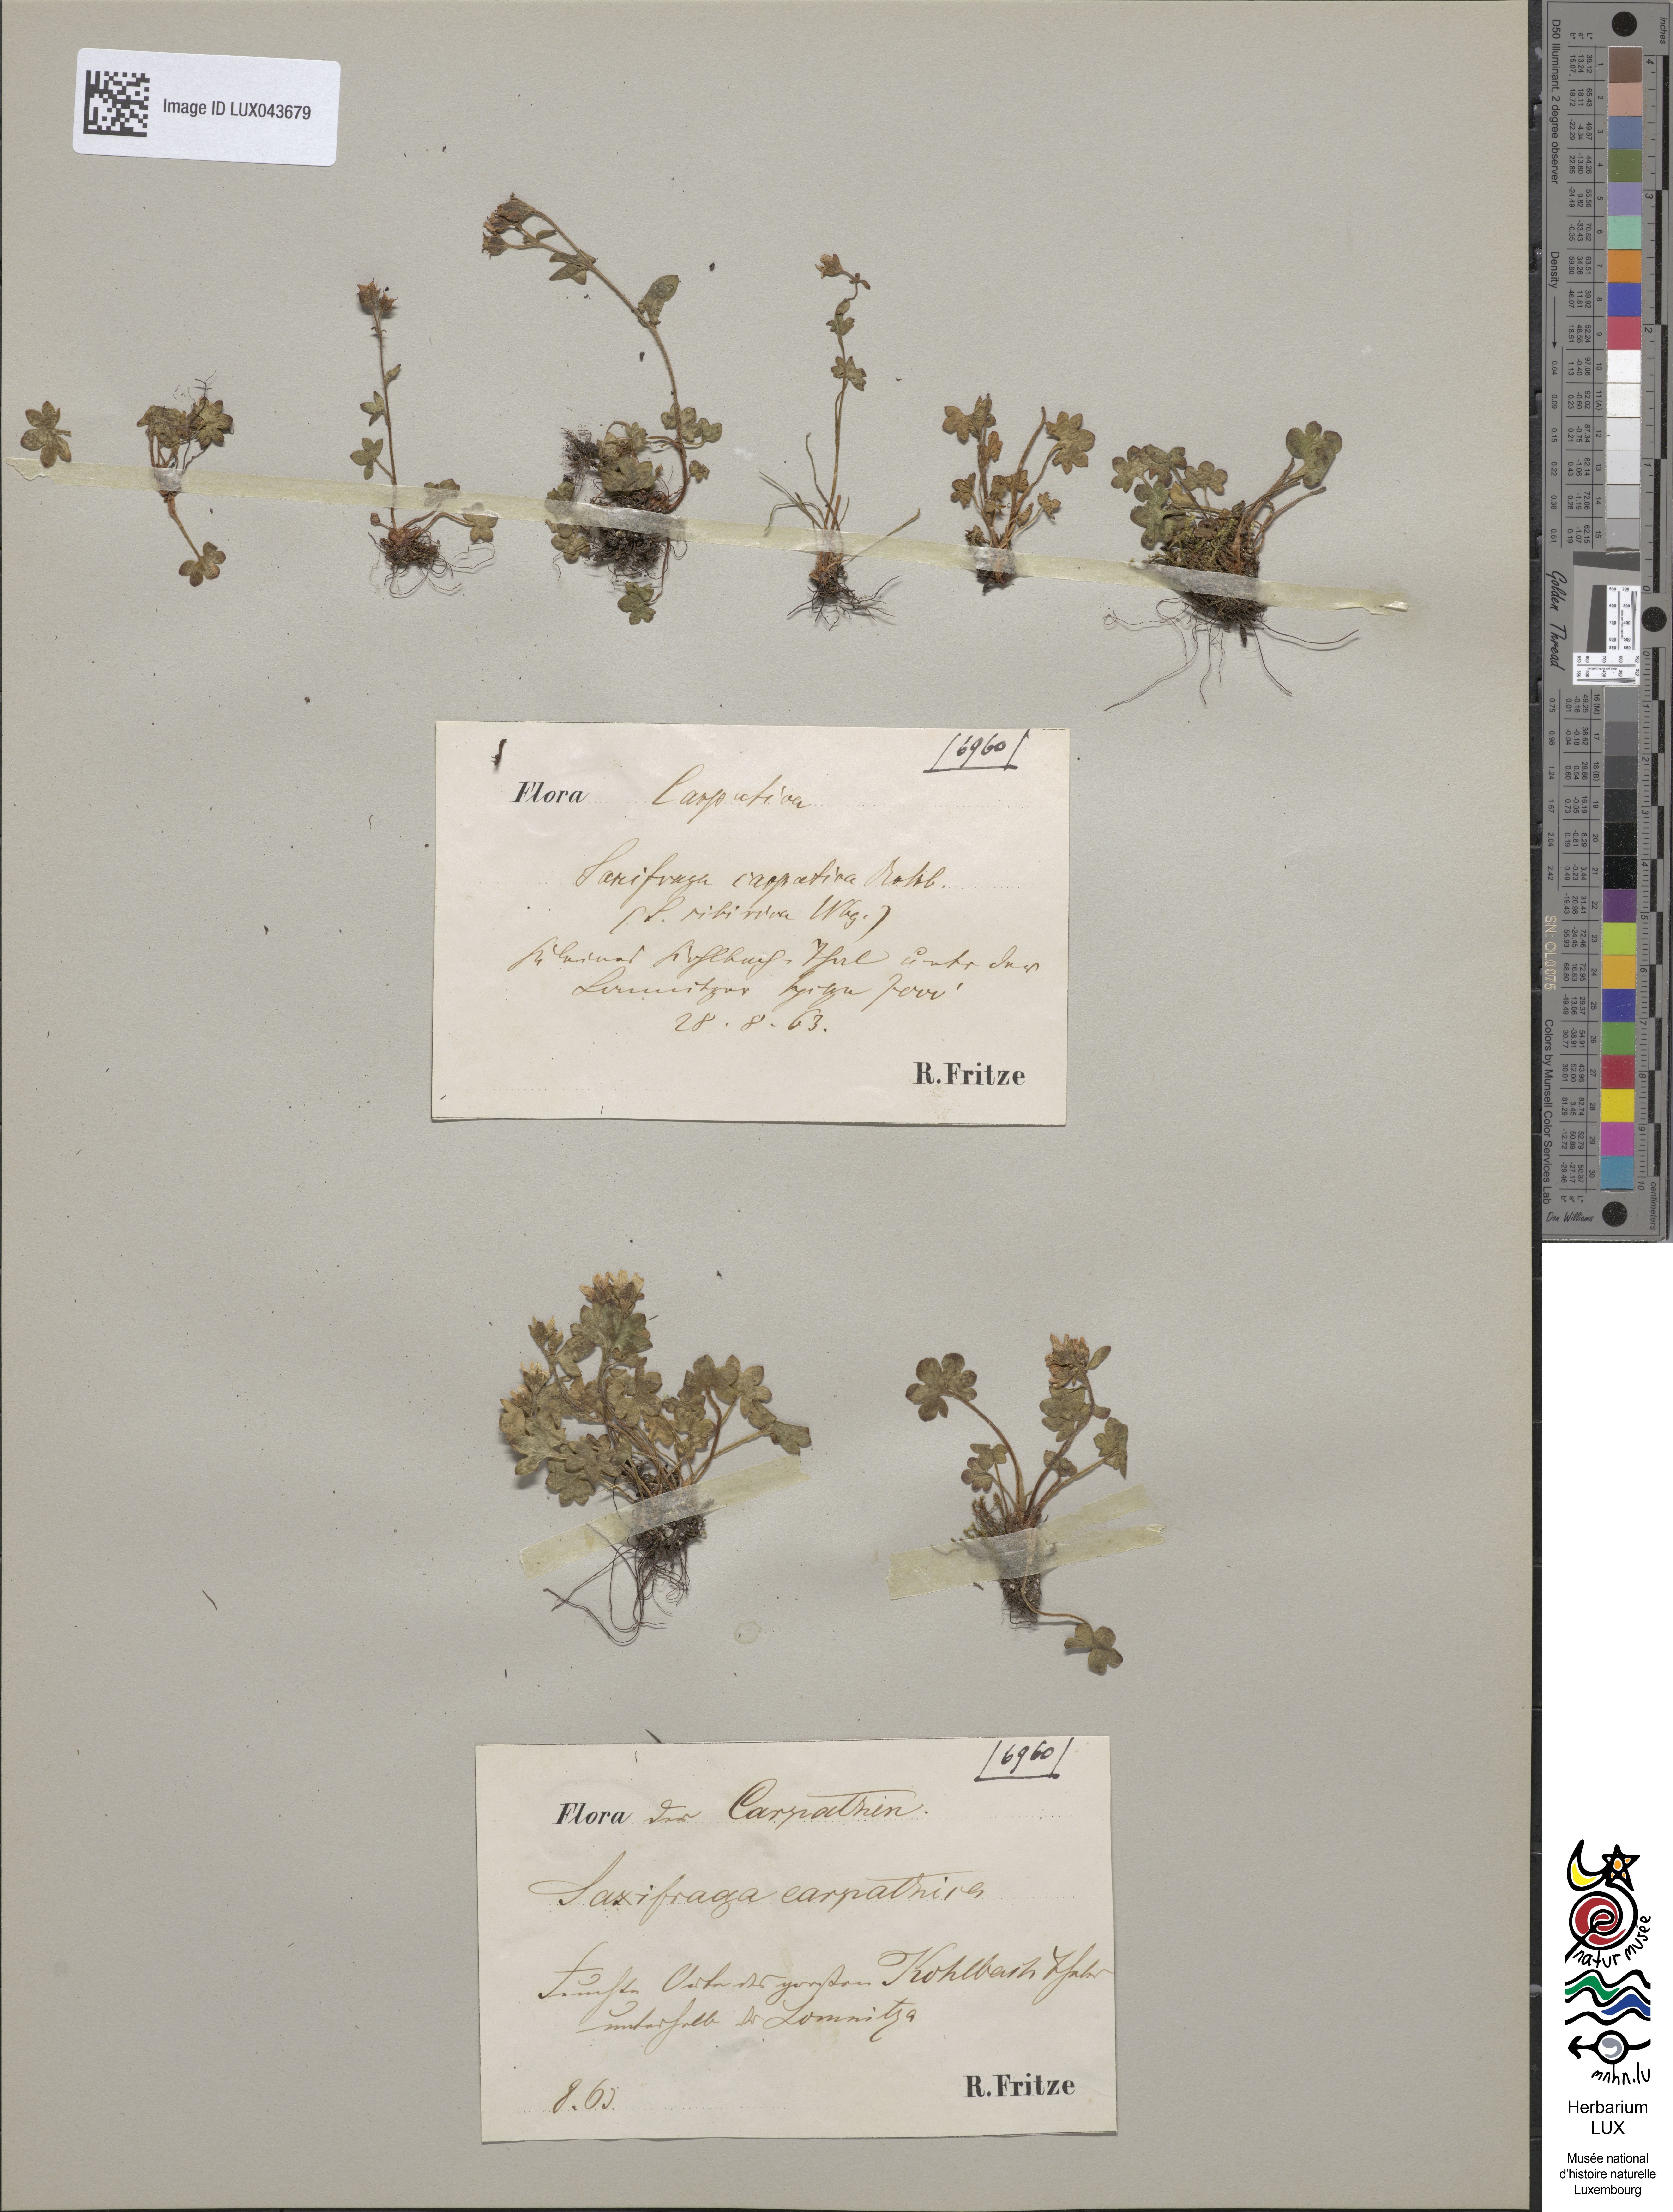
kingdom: Plantae
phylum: Tracheophyta
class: Magnoliopsida
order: Saxifragales
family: Saxifragaceae
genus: Saxifraga
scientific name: Saxifraga carpatica
